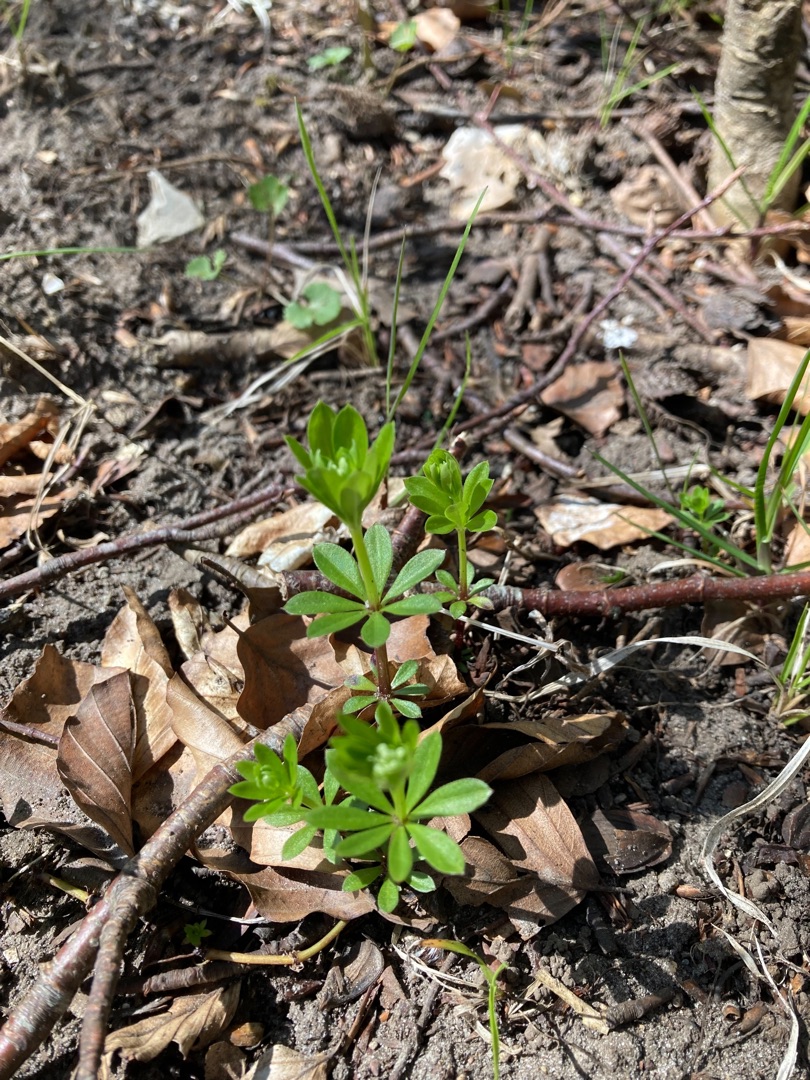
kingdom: Plantae
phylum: Tracheophyta
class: Magnoliopsida
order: Gentianales
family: Rubiaceae
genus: Galium
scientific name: Galium odoratum
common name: Skovmærke
